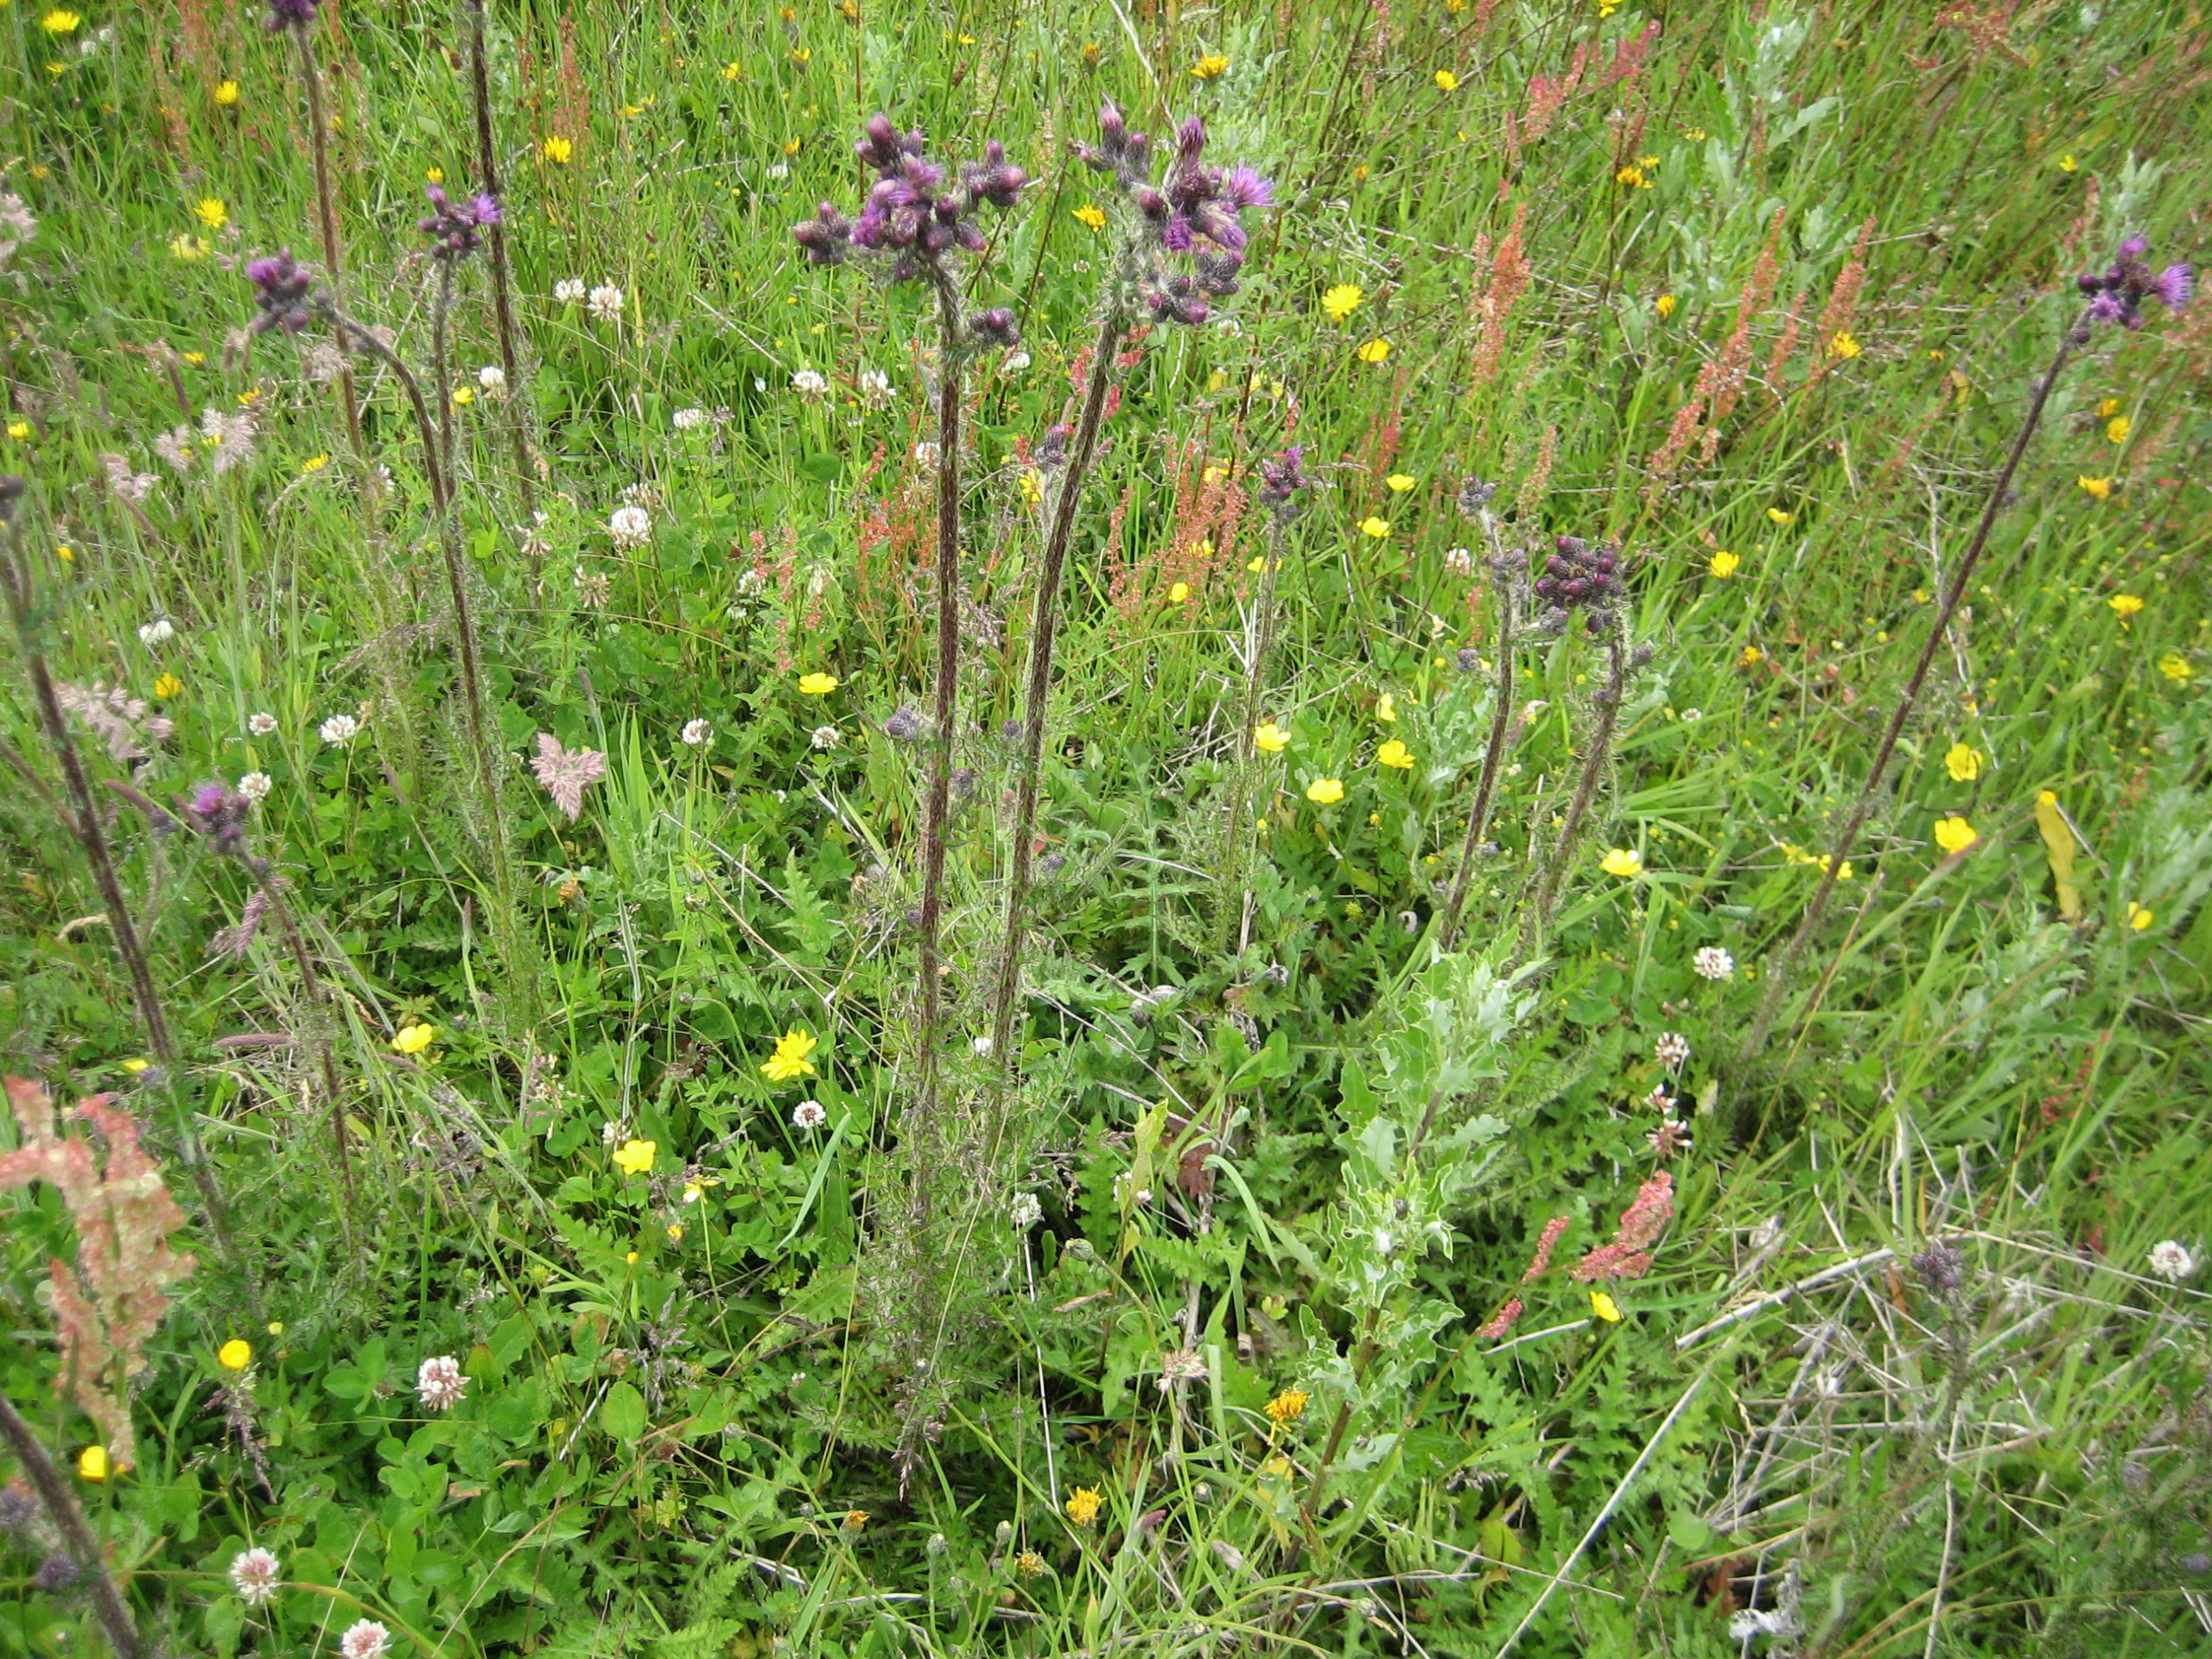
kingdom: Plantae
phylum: Tracheophyta
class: Magnoliopsida
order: Asterales
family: Asteraceae
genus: Cirsium
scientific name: Cirsium palustre
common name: Kær-tidsel
